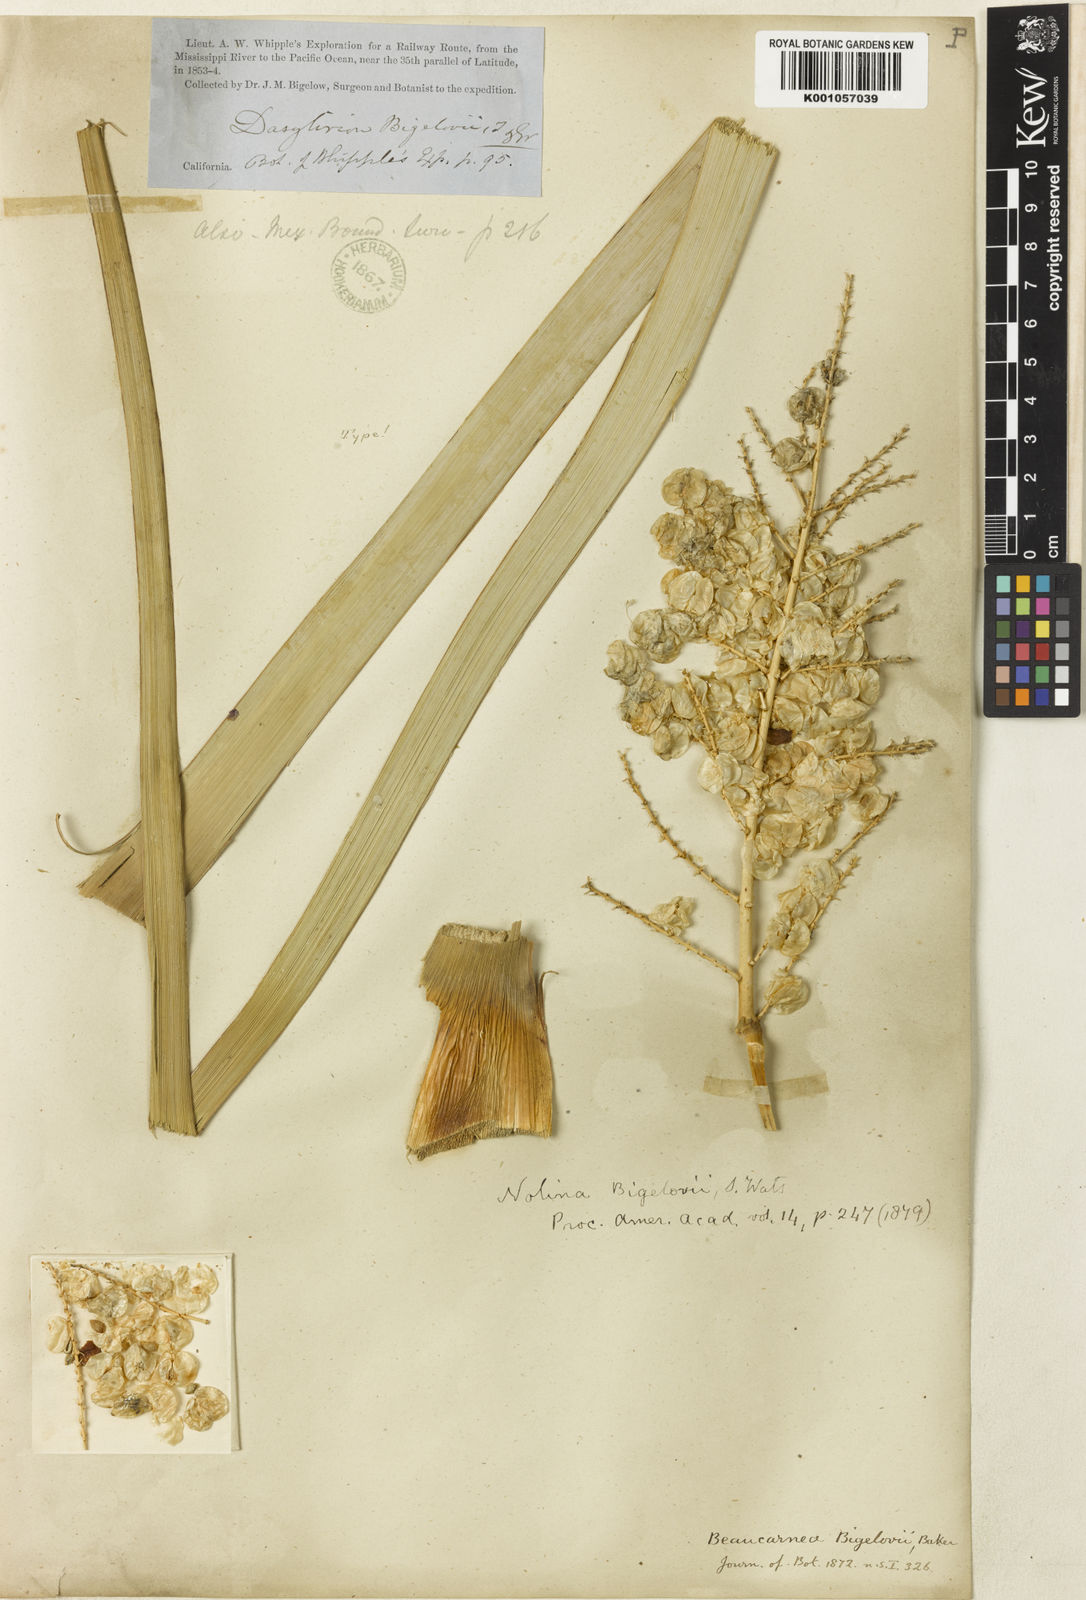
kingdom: Plantae
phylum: Tracheophyta
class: Liliopsida
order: Asparagales
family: Asparagaceae
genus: Nolina
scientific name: Nolina bigelovii
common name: Bigelow bear-grass
